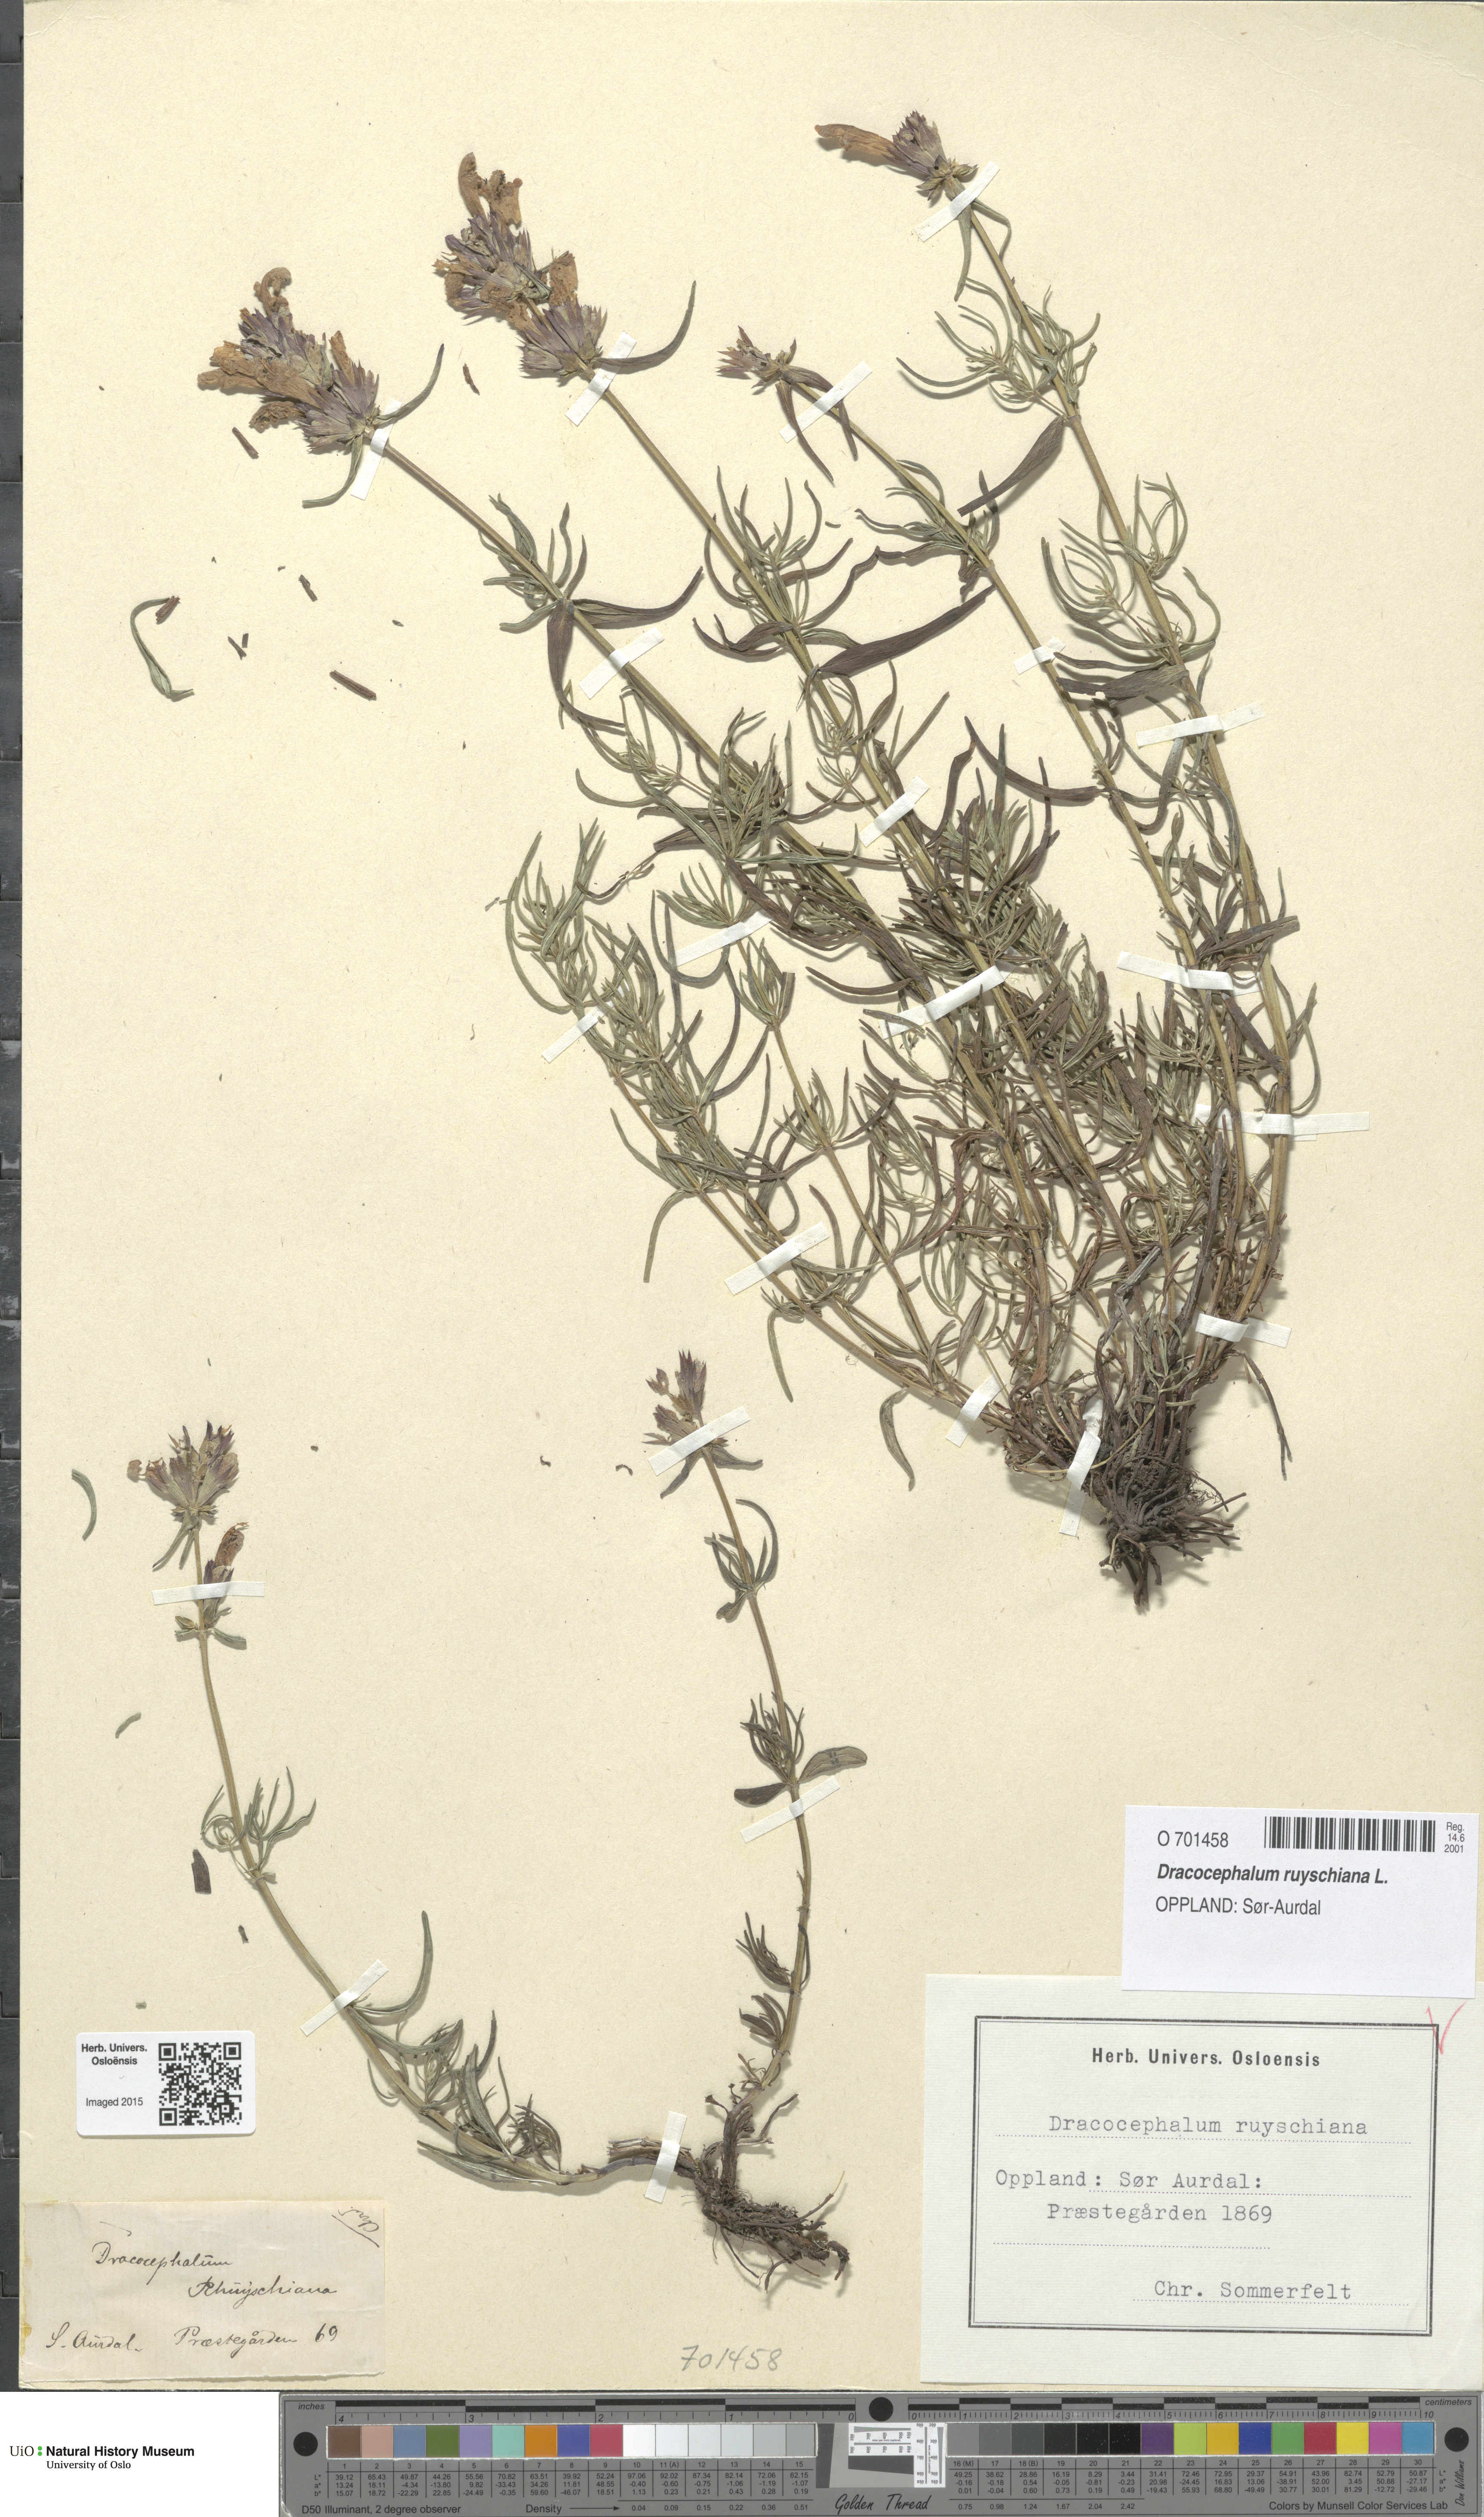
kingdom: Plantae
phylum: Tracheophyta
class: Magnoliopsida
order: Lamiales
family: Lamiaceae
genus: Dracocephalum
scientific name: Dracocephalum ruyschiana
